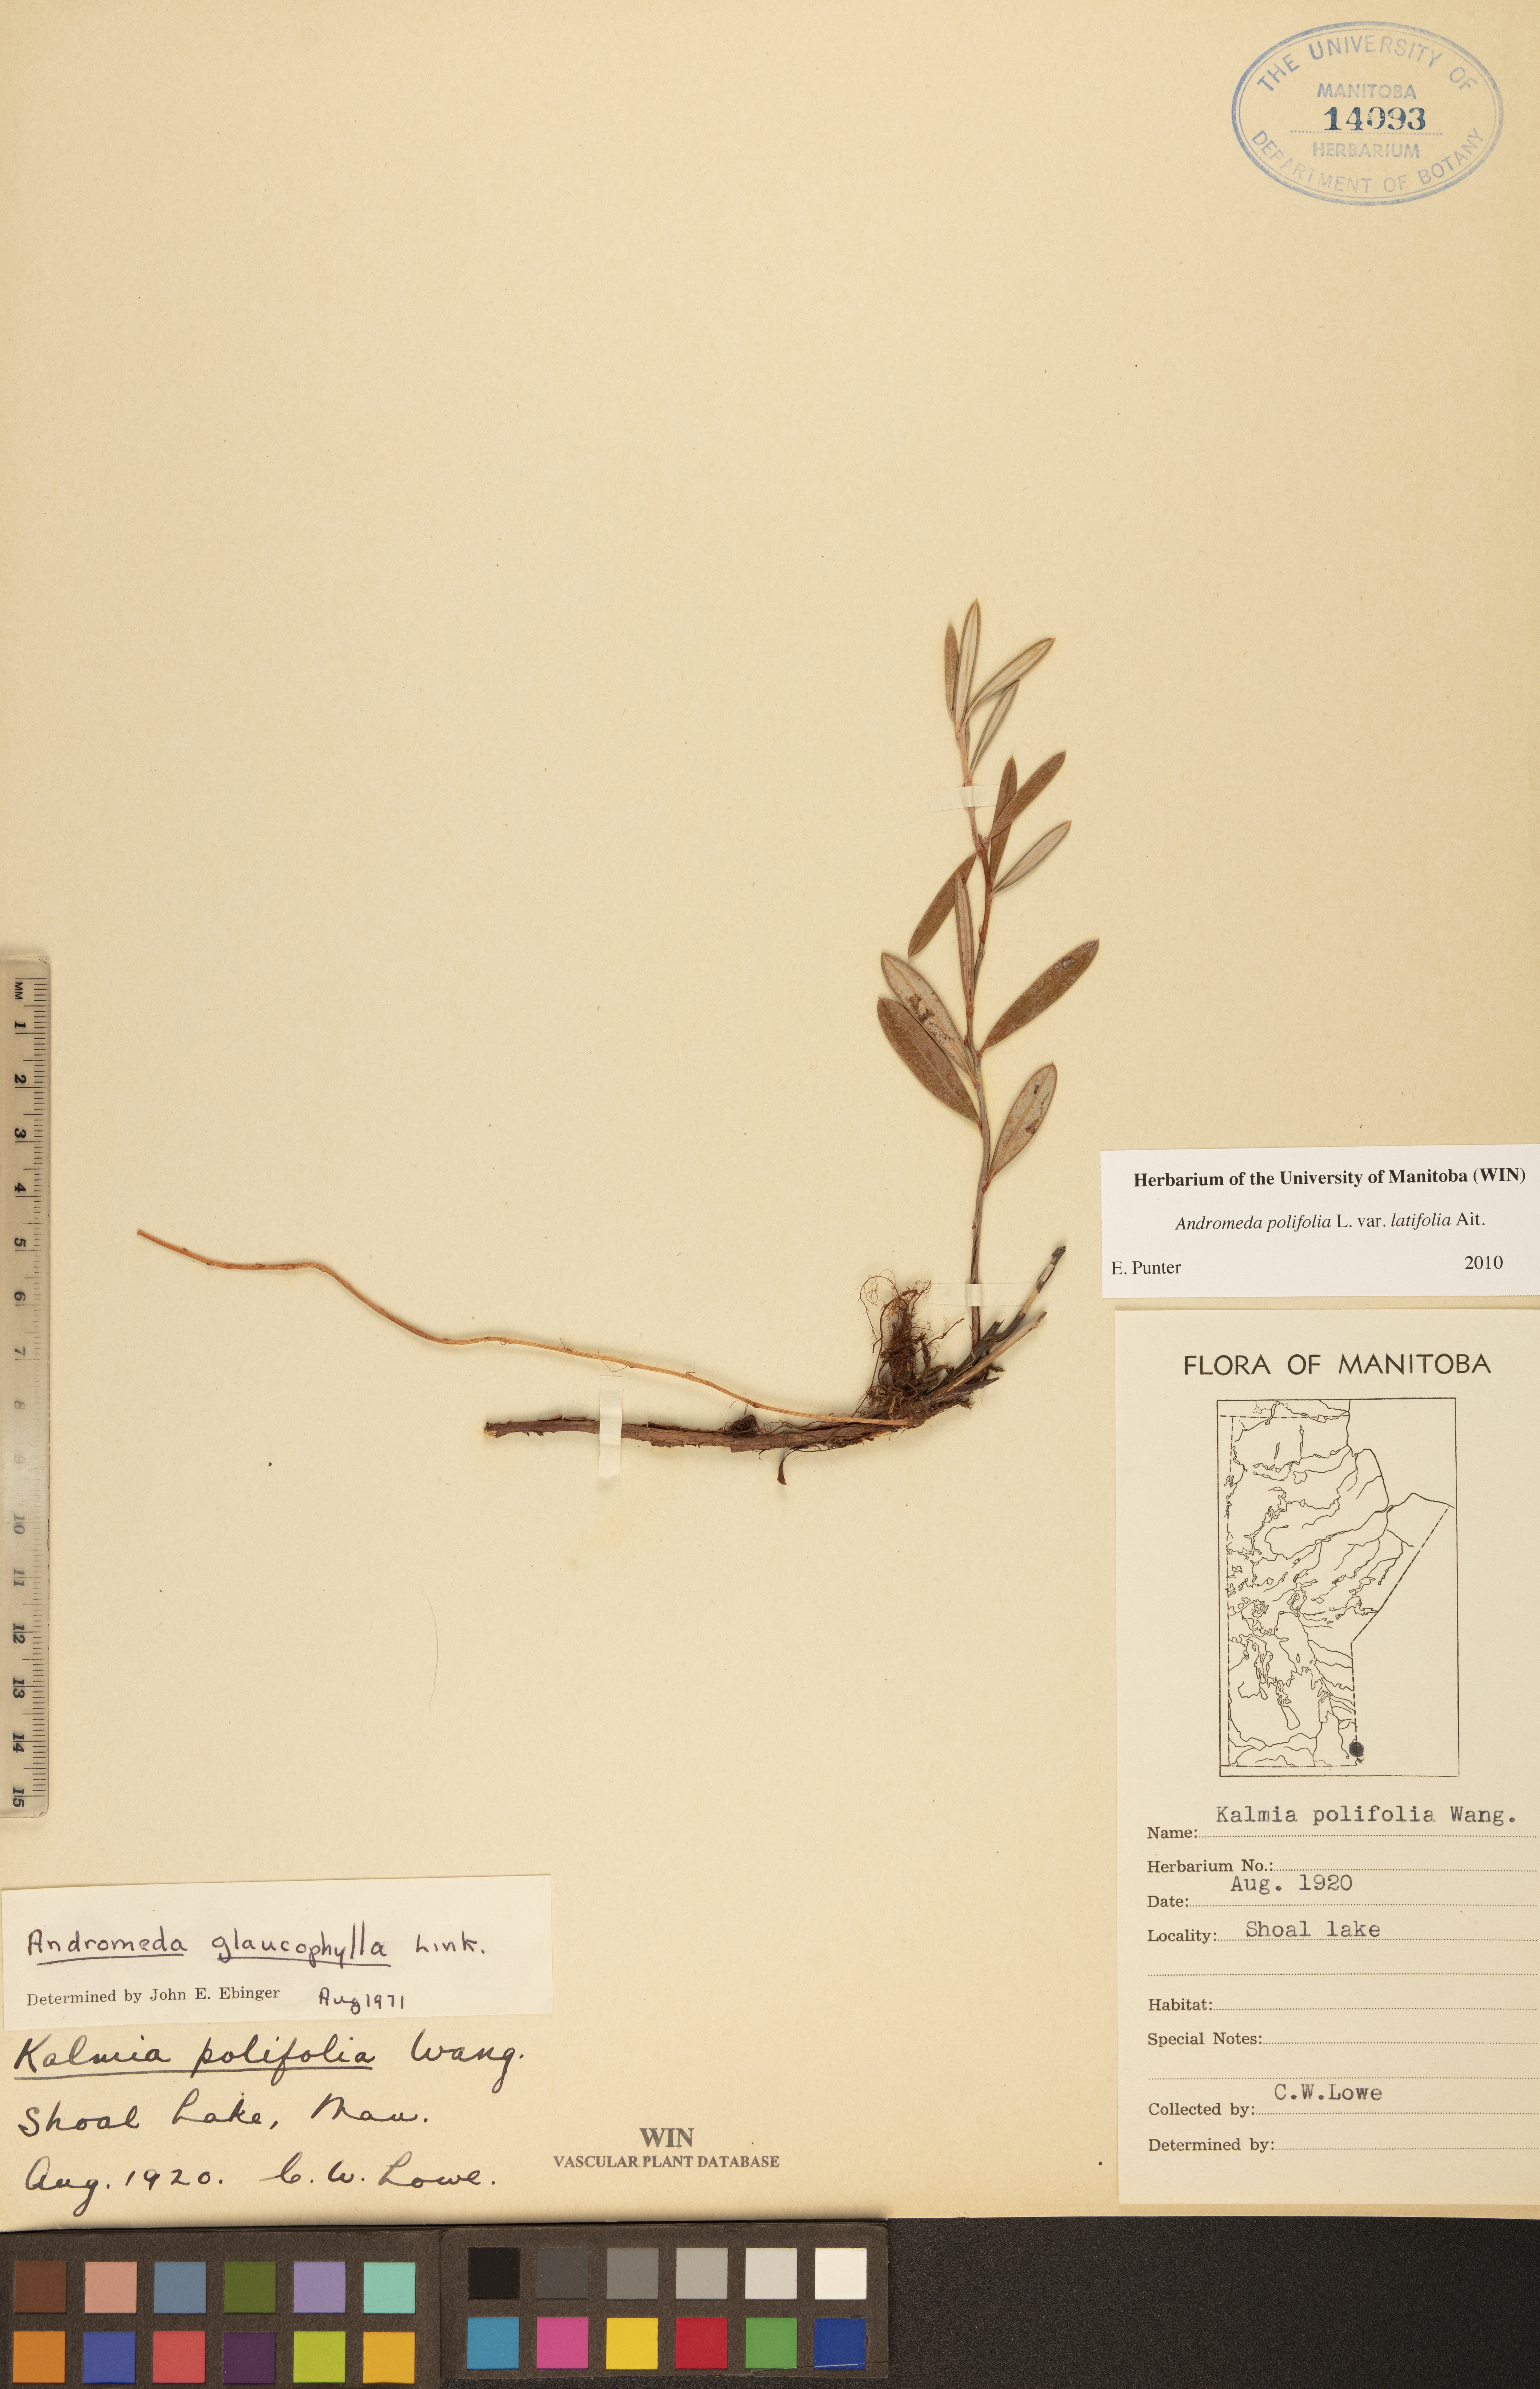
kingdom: Plantae
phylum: Tracheophyta
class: Magnoliopsida
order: Ericales
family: Ericaceae
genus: Andromeda
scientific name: Andromeda polifolia
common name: Bog-rosemary
